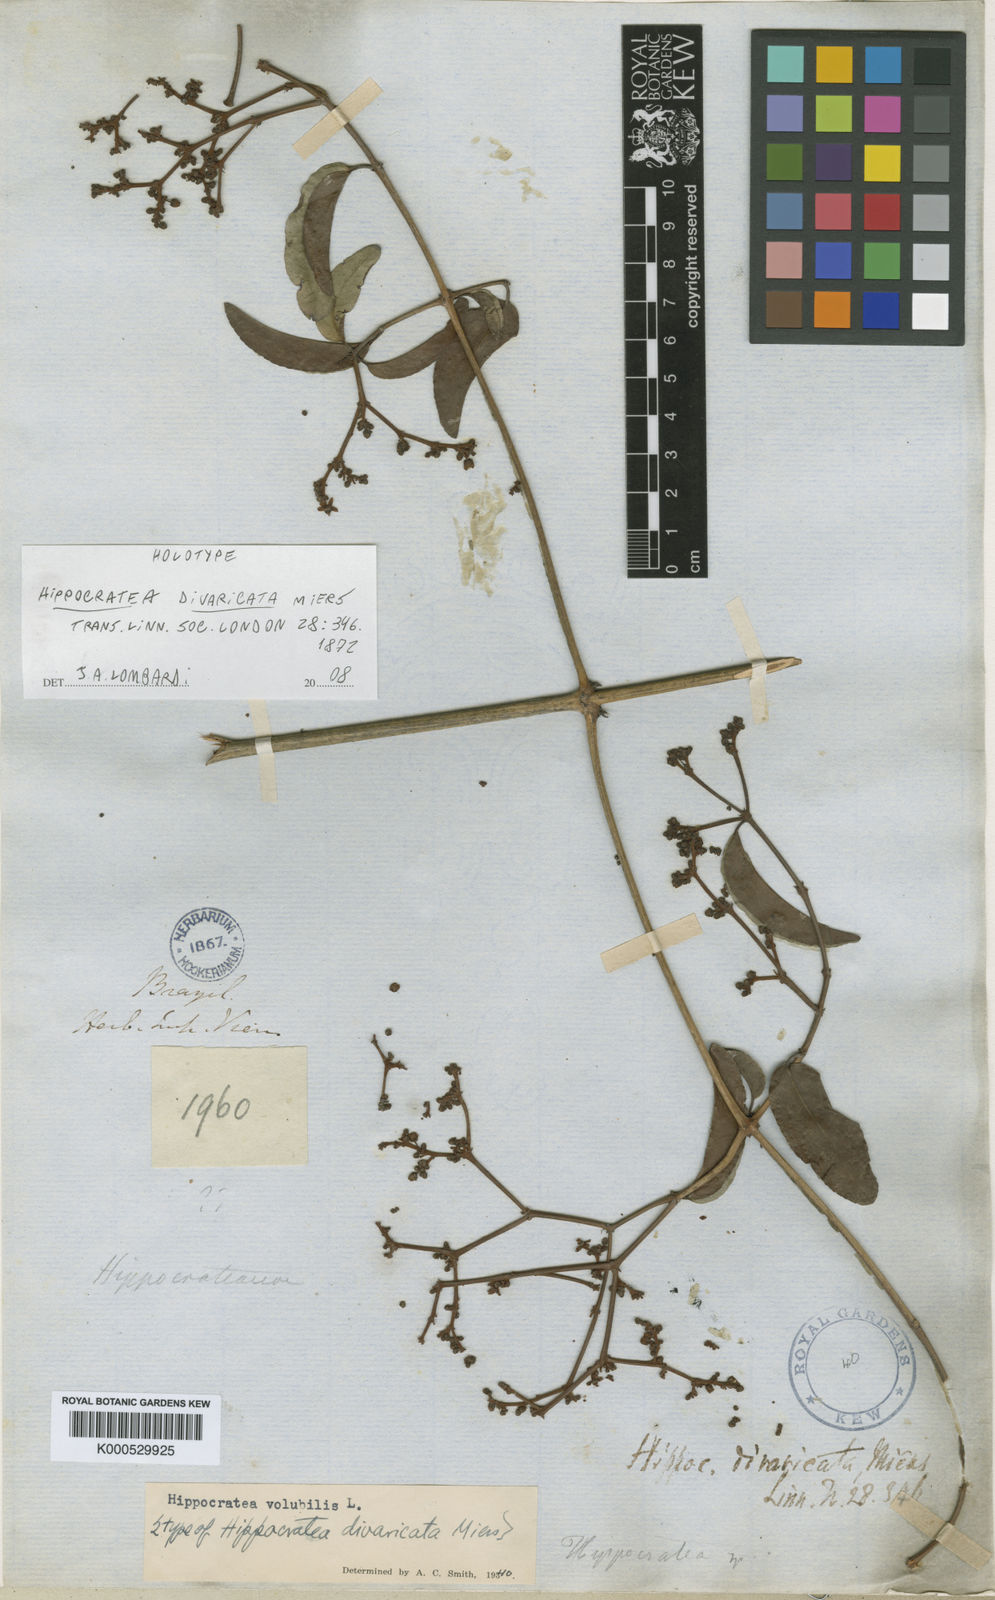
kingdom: Plantae
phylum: Tracheophyta
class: Magnoliopsida
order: Celastrales
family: Celastraceae
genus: Hippocratea
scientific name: Hippocratea volubilis
